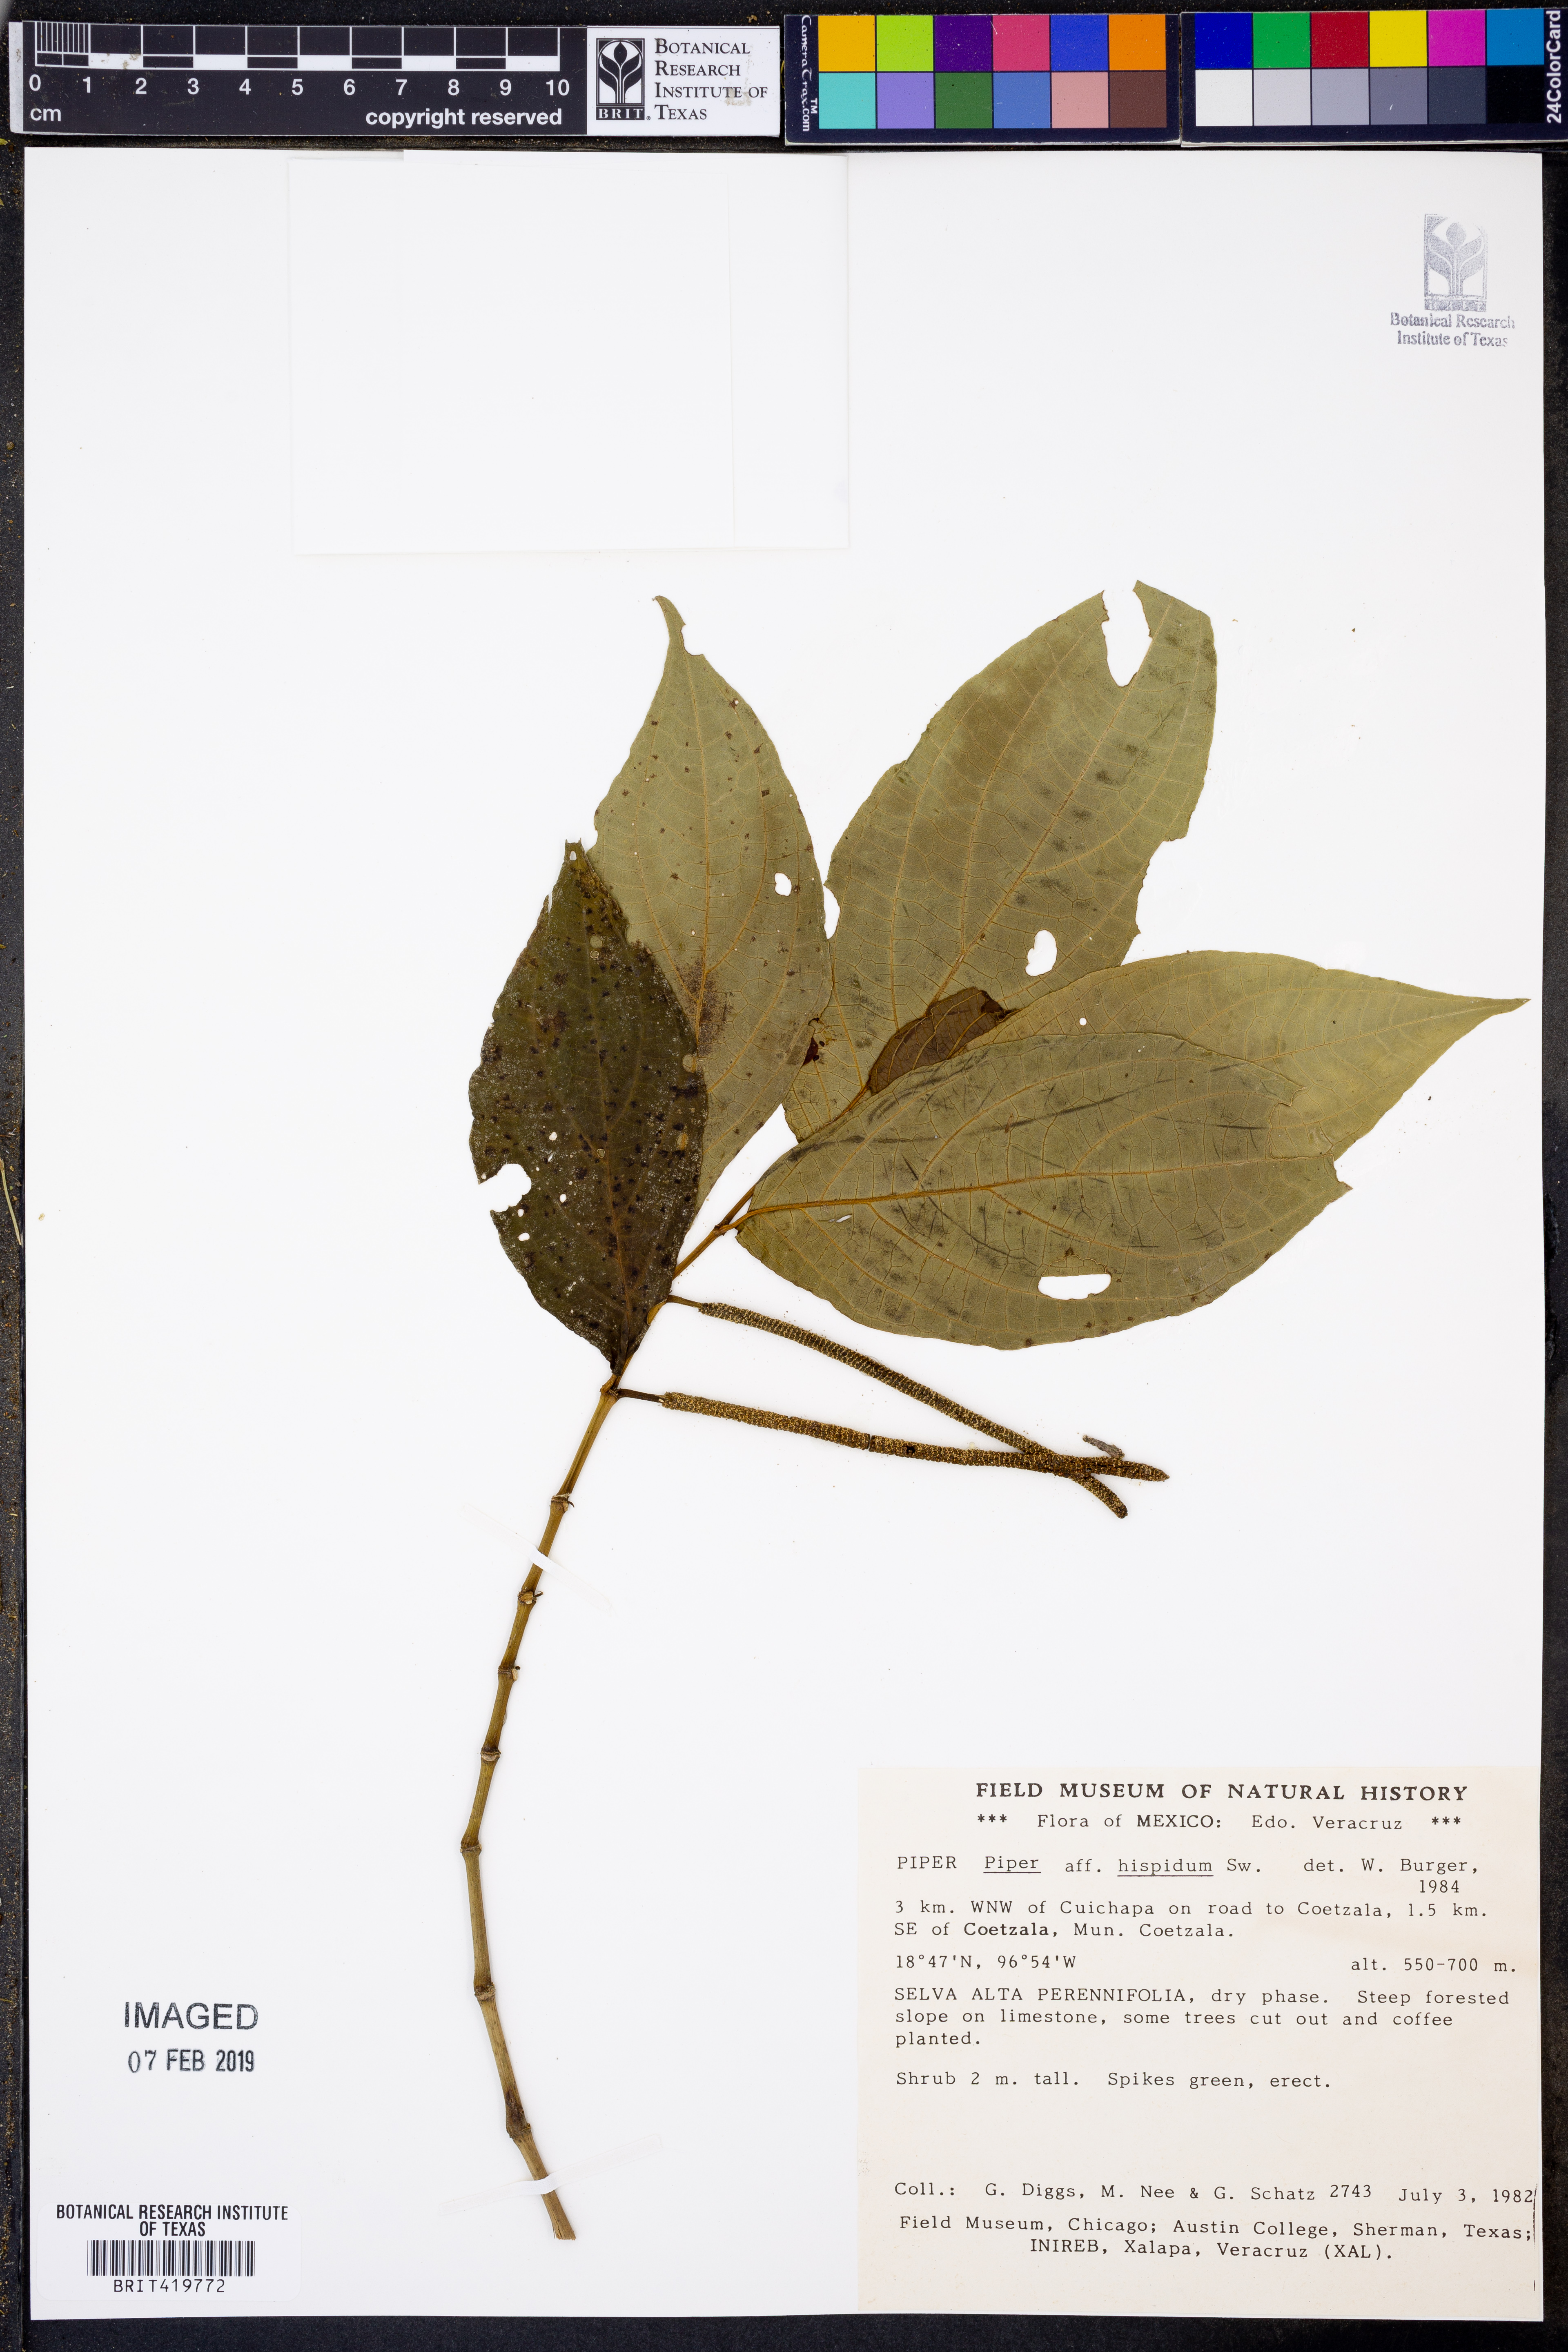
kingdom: Plantae
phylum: Tracheophyta
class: Magnoliopsida
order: Piperales
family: Piperaceae
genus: Piper
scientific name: Piper hispidum
